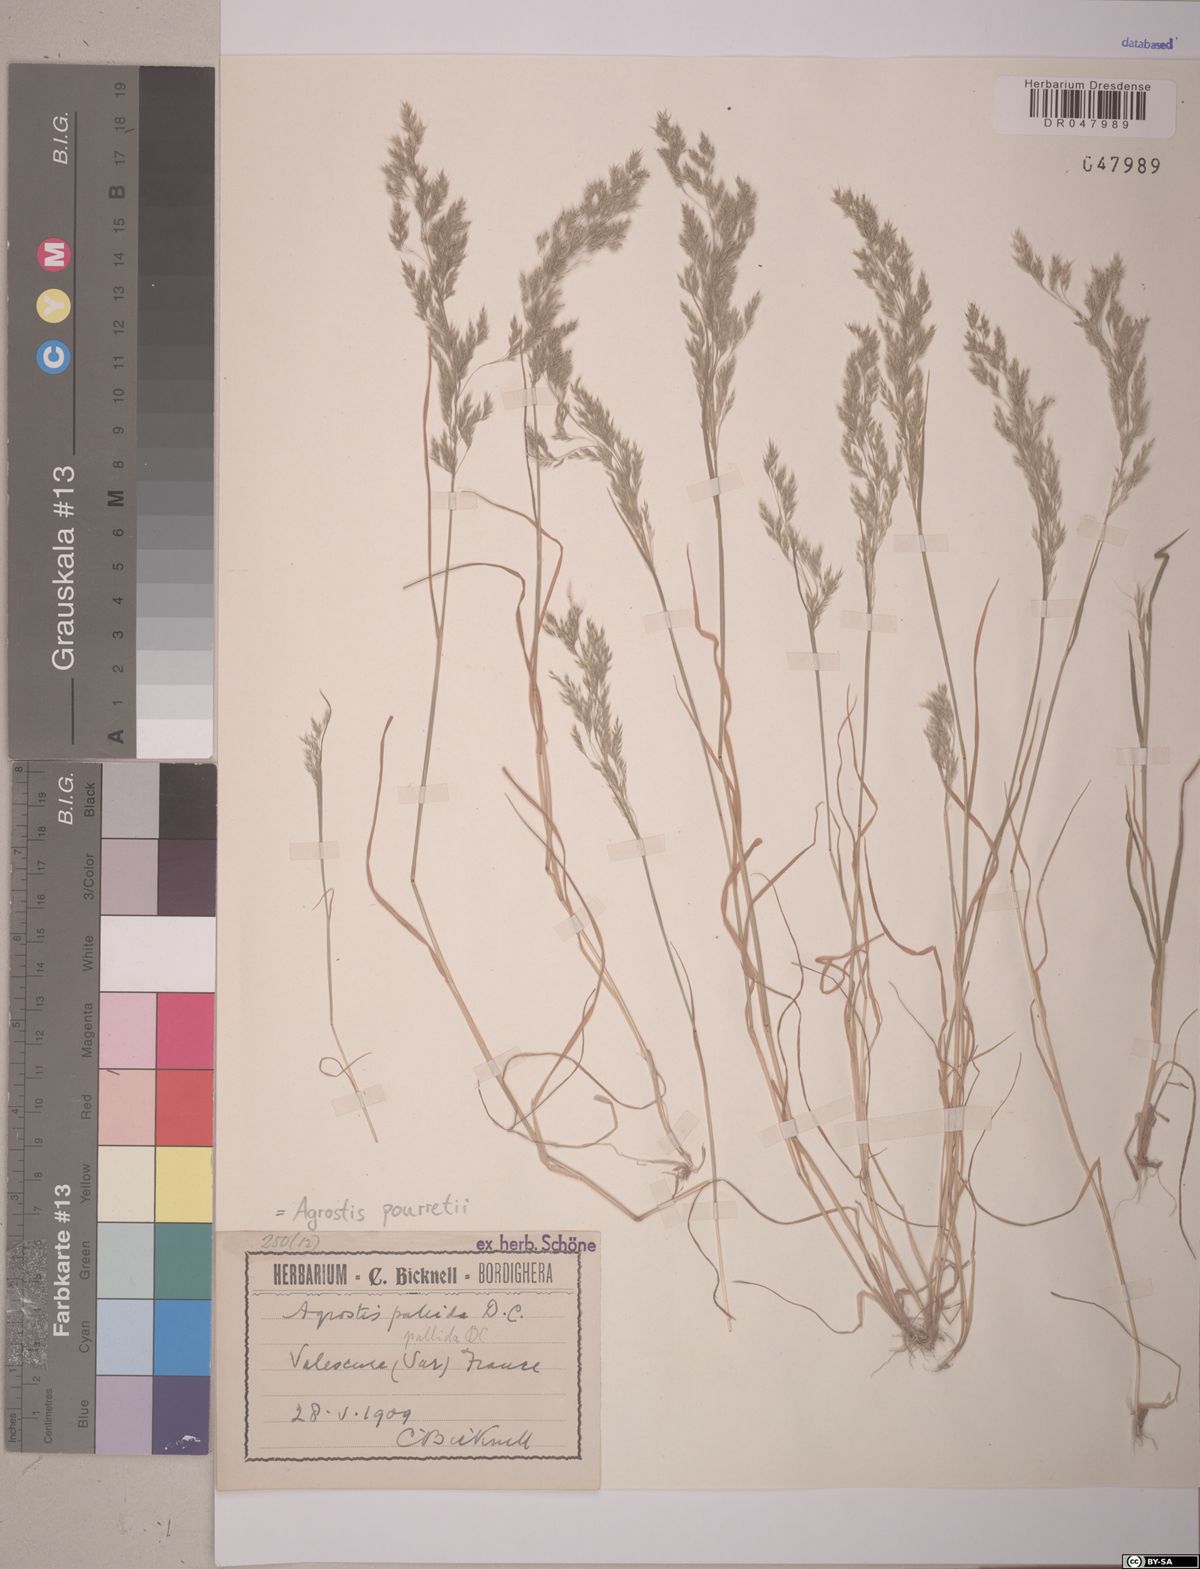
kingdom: Plantae
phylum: Tracheophyta
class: Liliopsida
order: Poales
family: Poaceae
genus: Agrostis
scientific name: Agrostis pourretii
